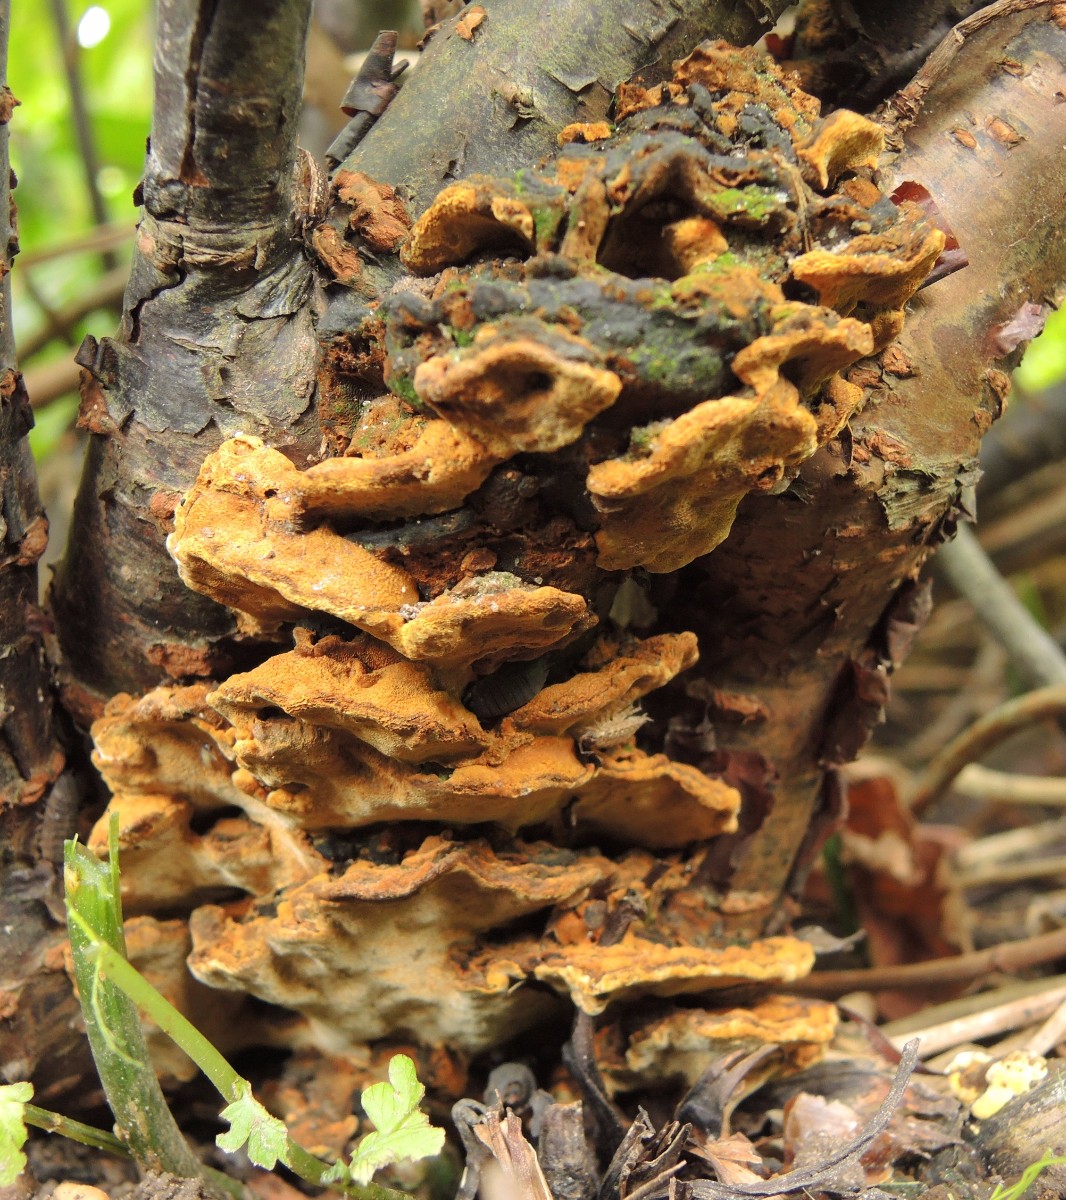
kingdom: Fungi
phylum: Basidiomycota
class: Agaricomycetes
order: Hymenochaetales
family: Hymenochaetaceae
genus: Phylloporia
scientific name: Phylloporia ribis
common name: ribs-ildporesvamp
